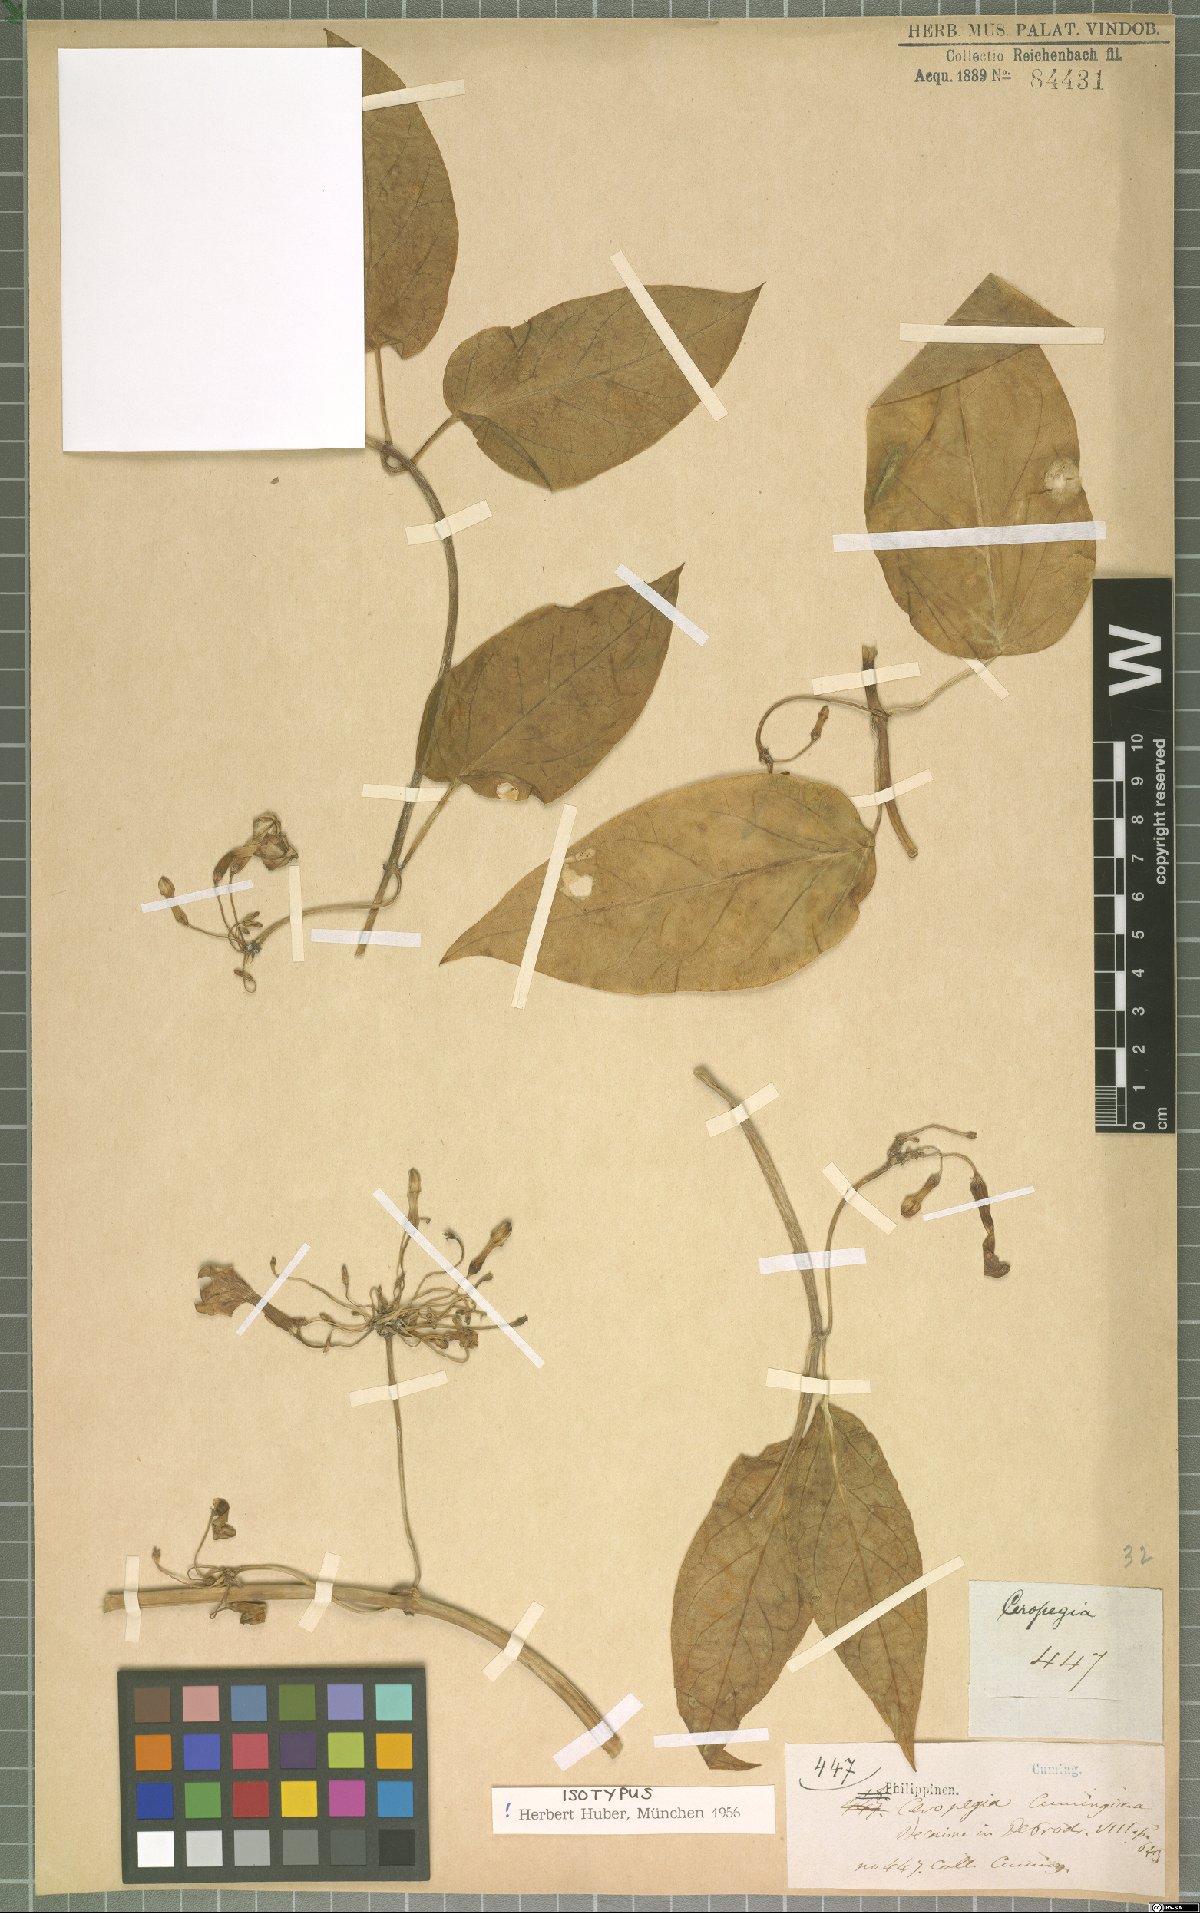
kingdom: Plantae
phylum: Tracheophyta
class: Magnoliopsida
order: Gentianales
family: Apocynaceae
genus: Ceropegia
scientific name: Ceropegia cumingiana
